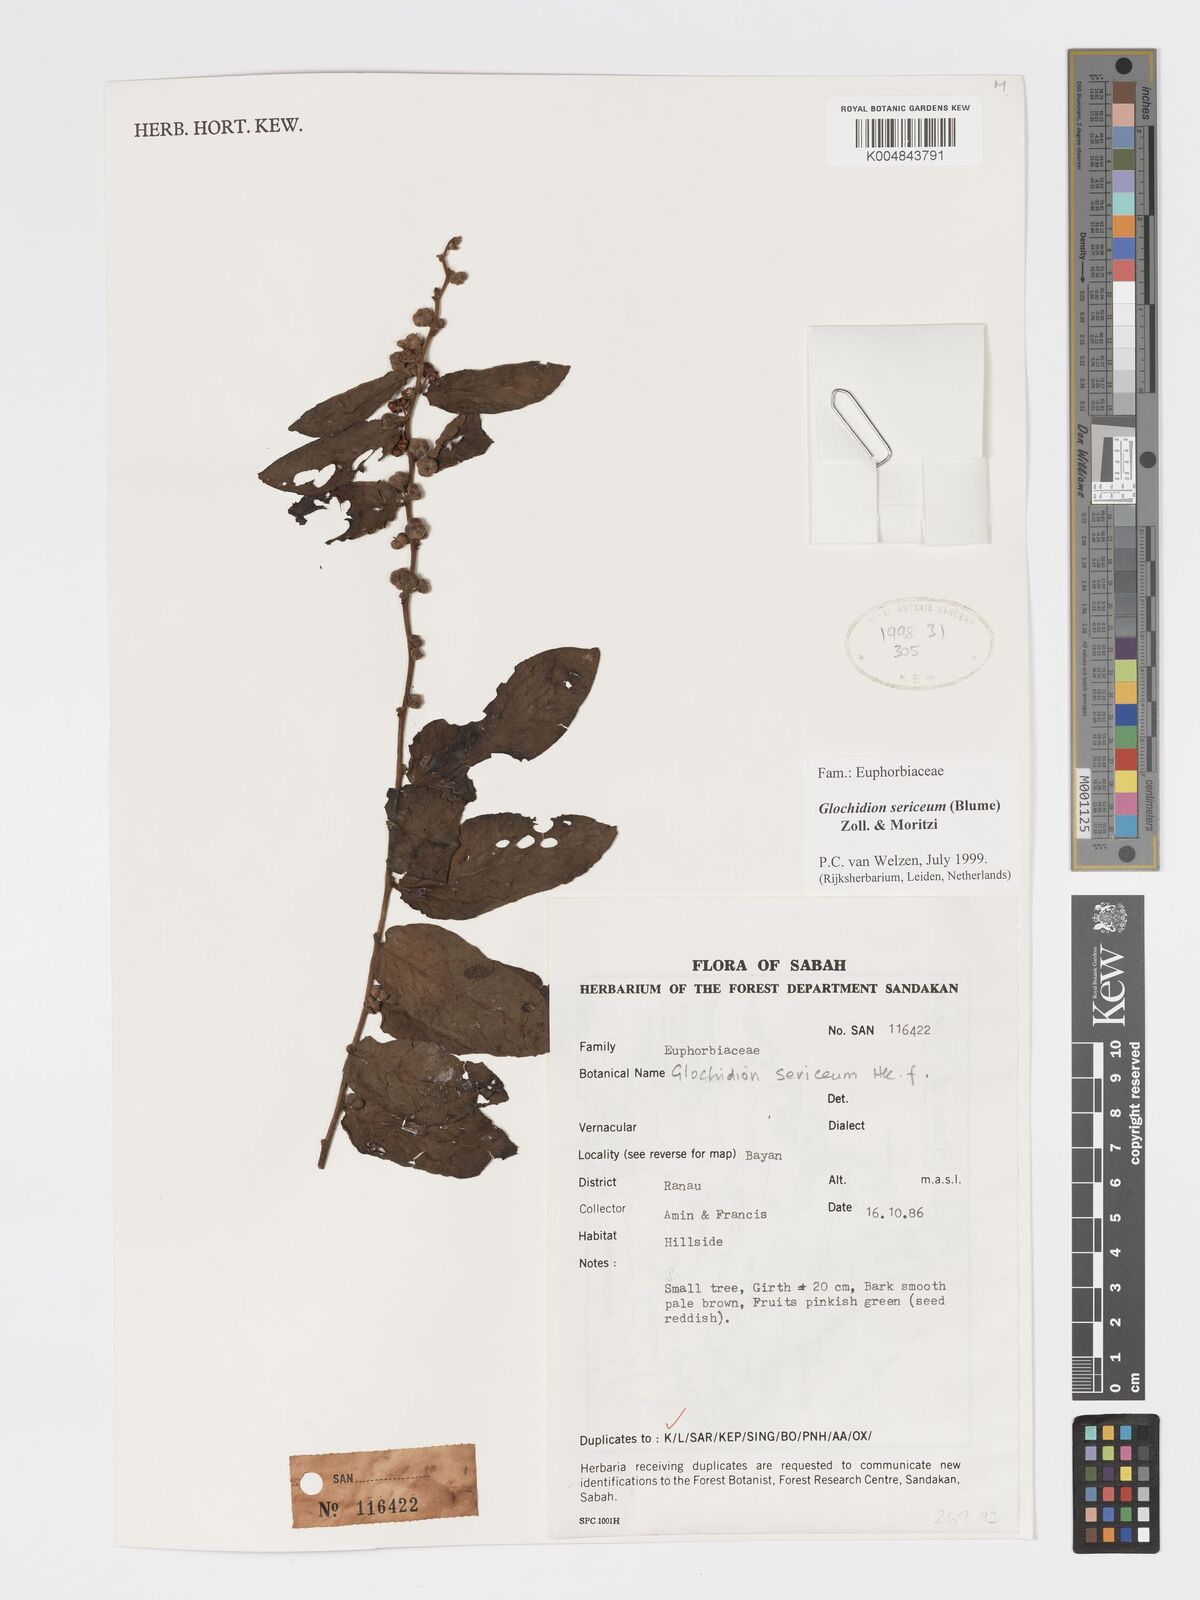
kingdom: Plantae
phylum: Tracheophyta
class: Magnoliopsida
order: Malpighiales
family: Phyllanthaceae
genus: Glochidion
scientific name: Glochidion sericeum
